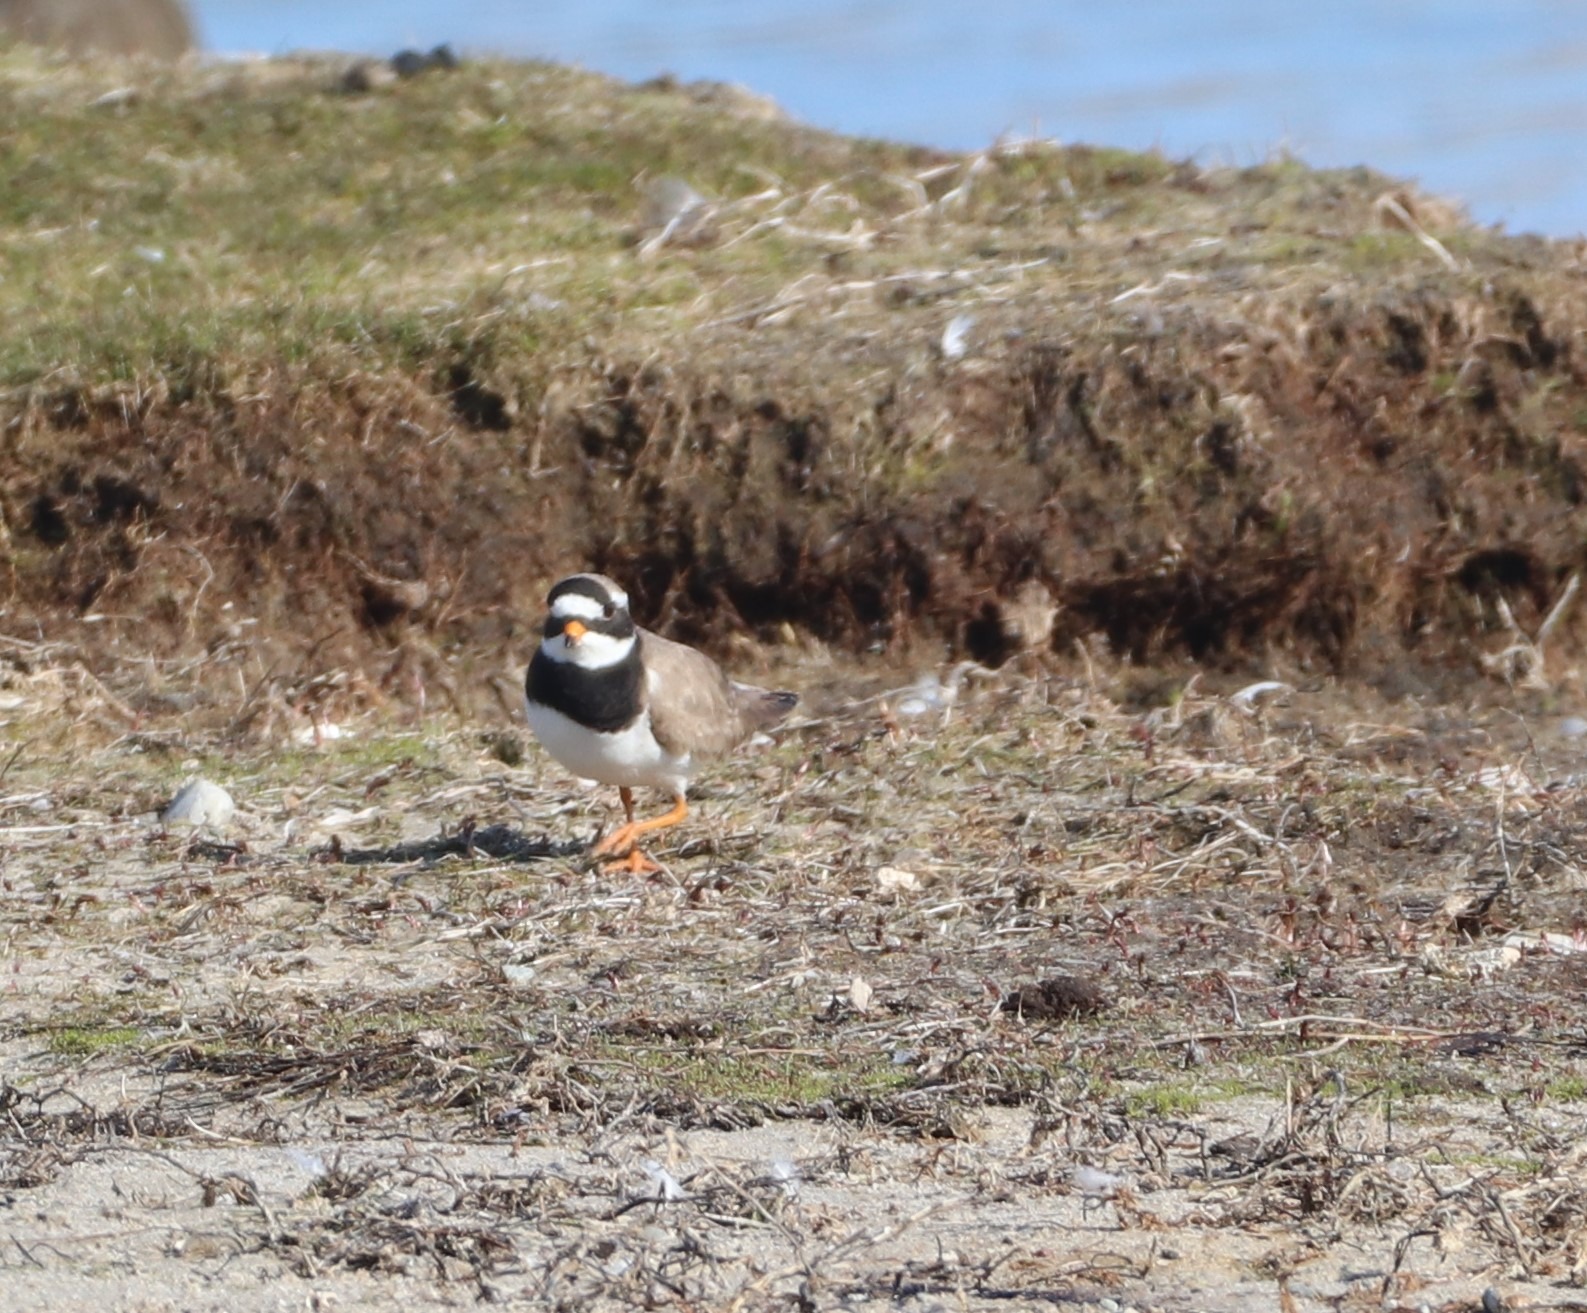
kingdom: Animalia
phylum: Chordata
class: Aves
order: Charadriiformes
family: Charadriidae
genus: Charadrius
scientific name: Charadrius hiaticula
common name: Stor præstekrave
